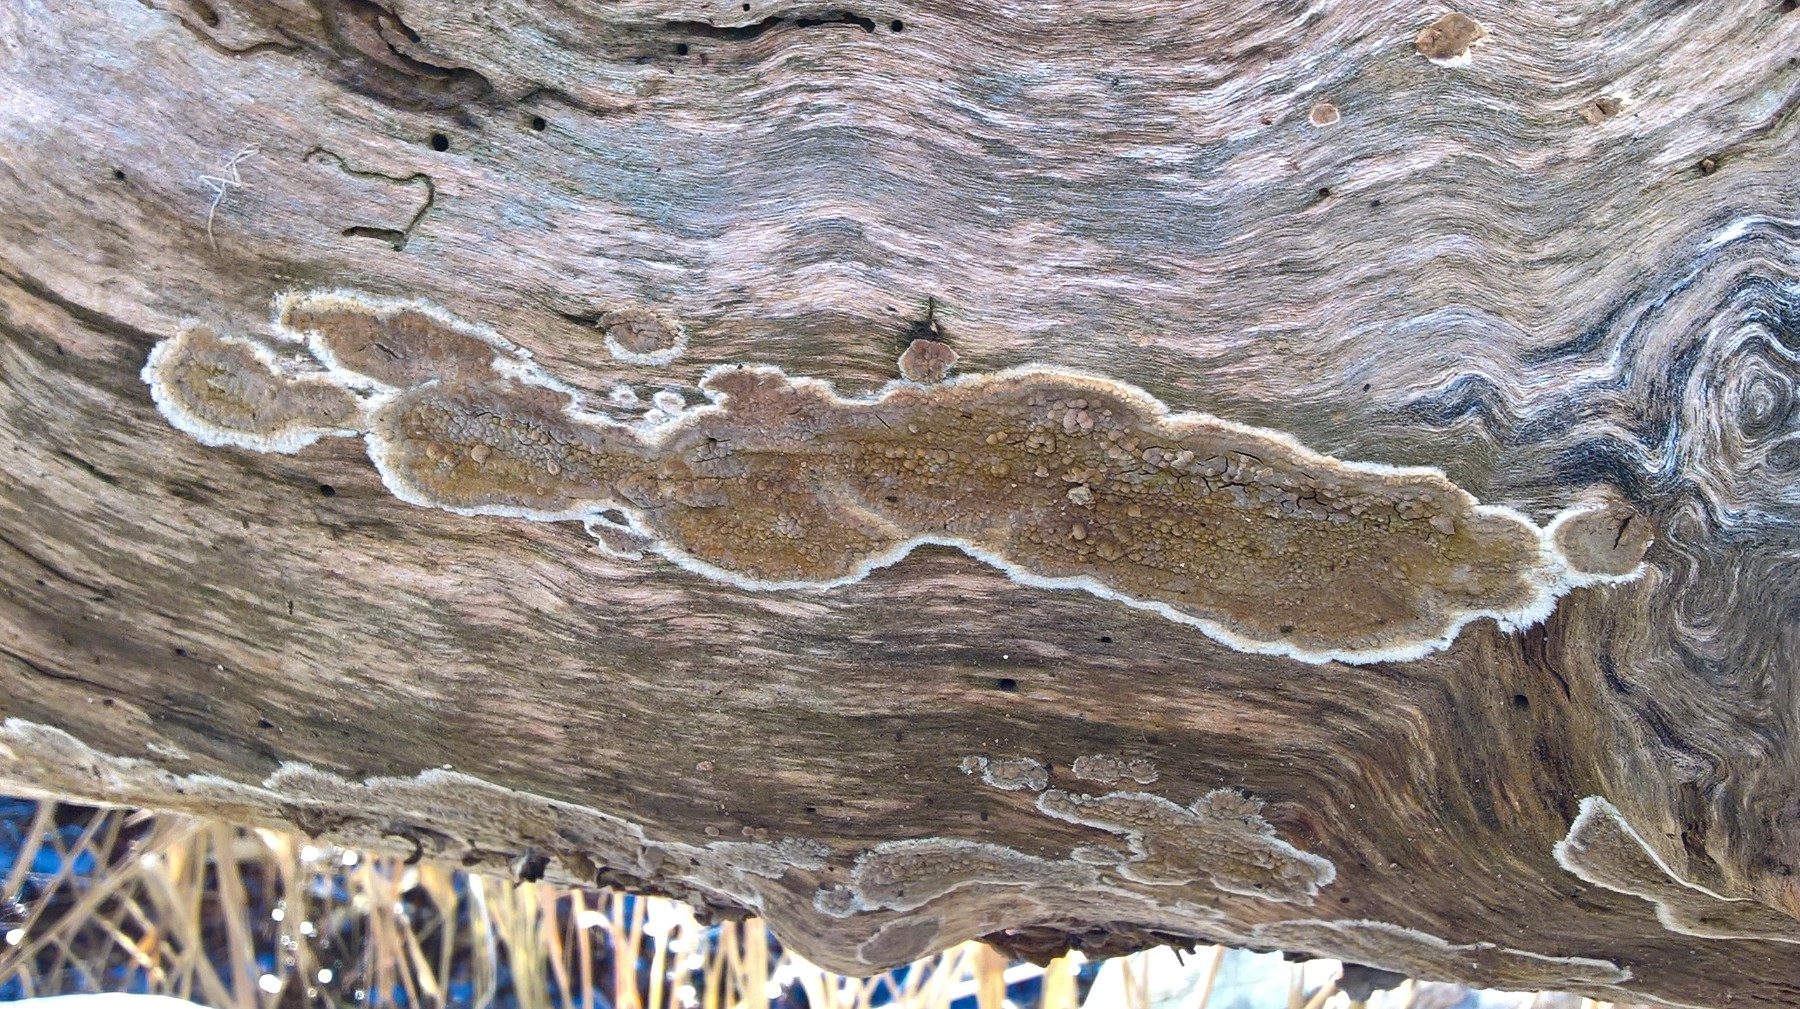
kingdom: Fungi
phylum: Basidiomycota
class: Agaricomycetes
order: Boletales
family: Coniophoraceae
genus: Coniophora
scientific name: Coniophora
